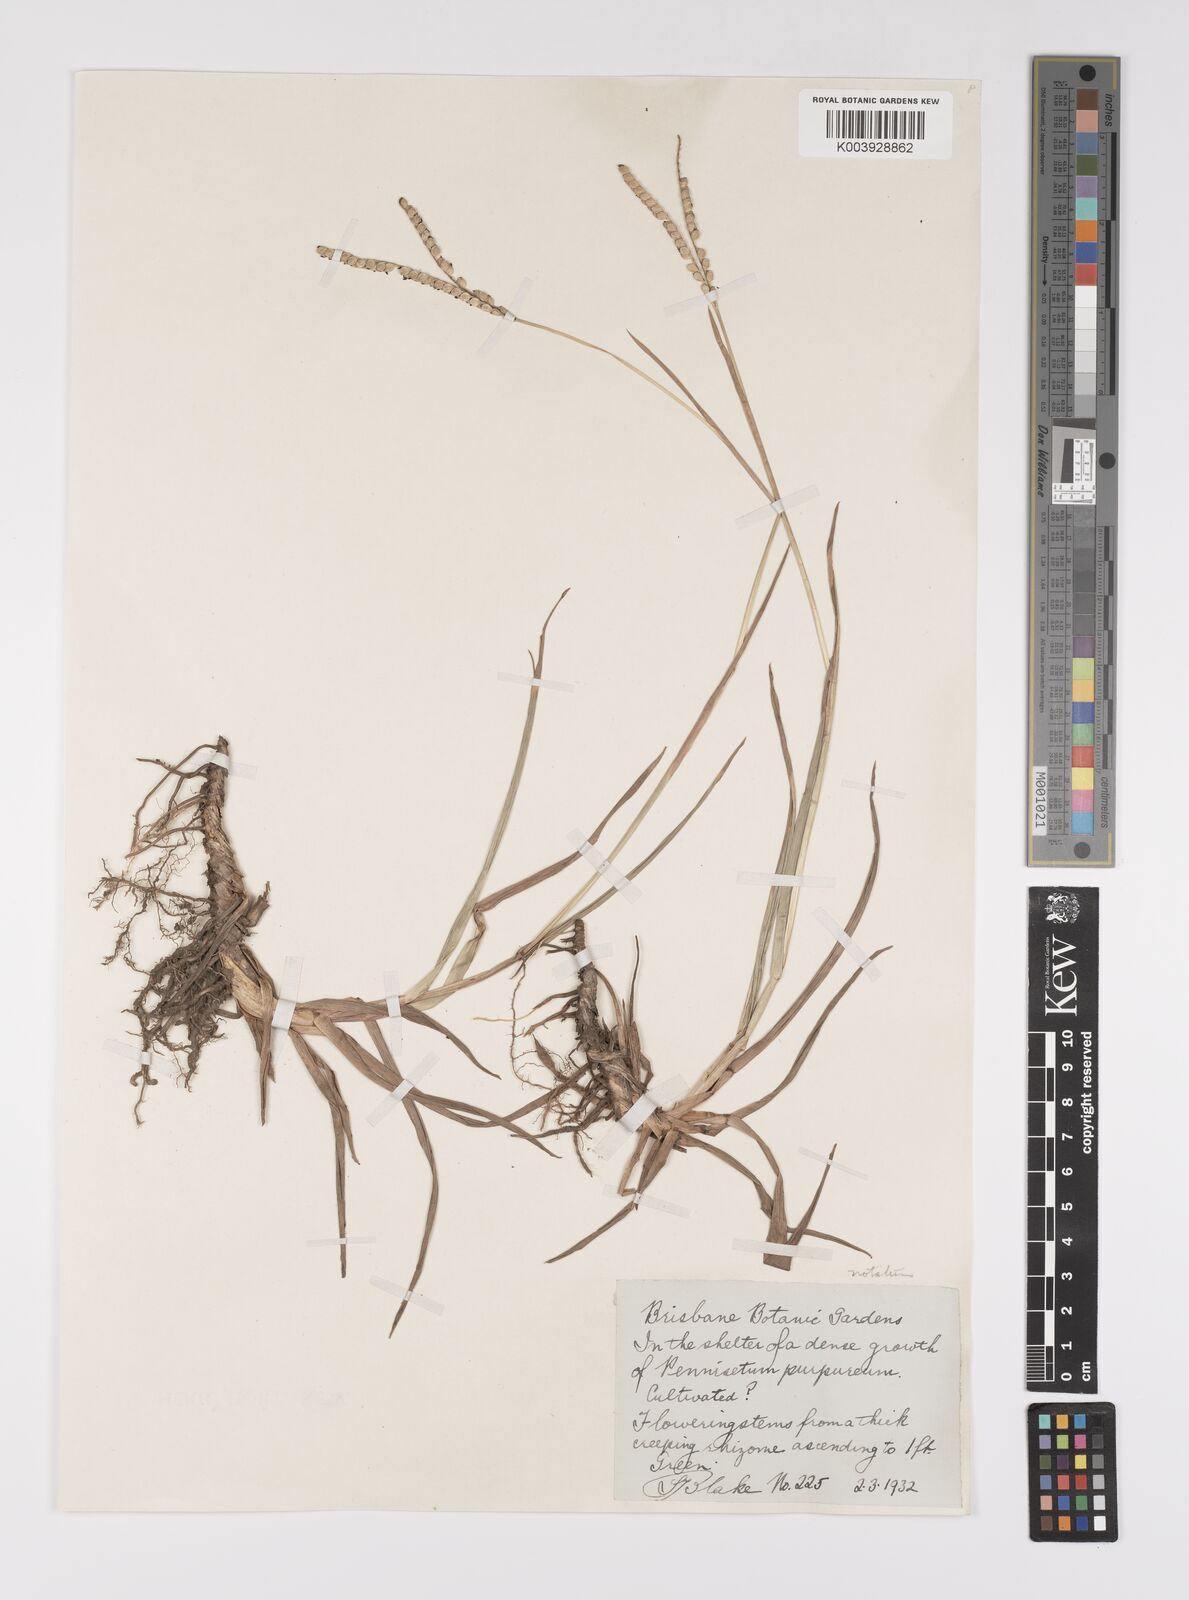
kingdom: Plantae
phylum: Tracheophyta
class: Liliopsida
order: Poales
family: Poaceae
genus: Paspalum
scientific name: Paspalum notatum
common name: Bahiagrass
